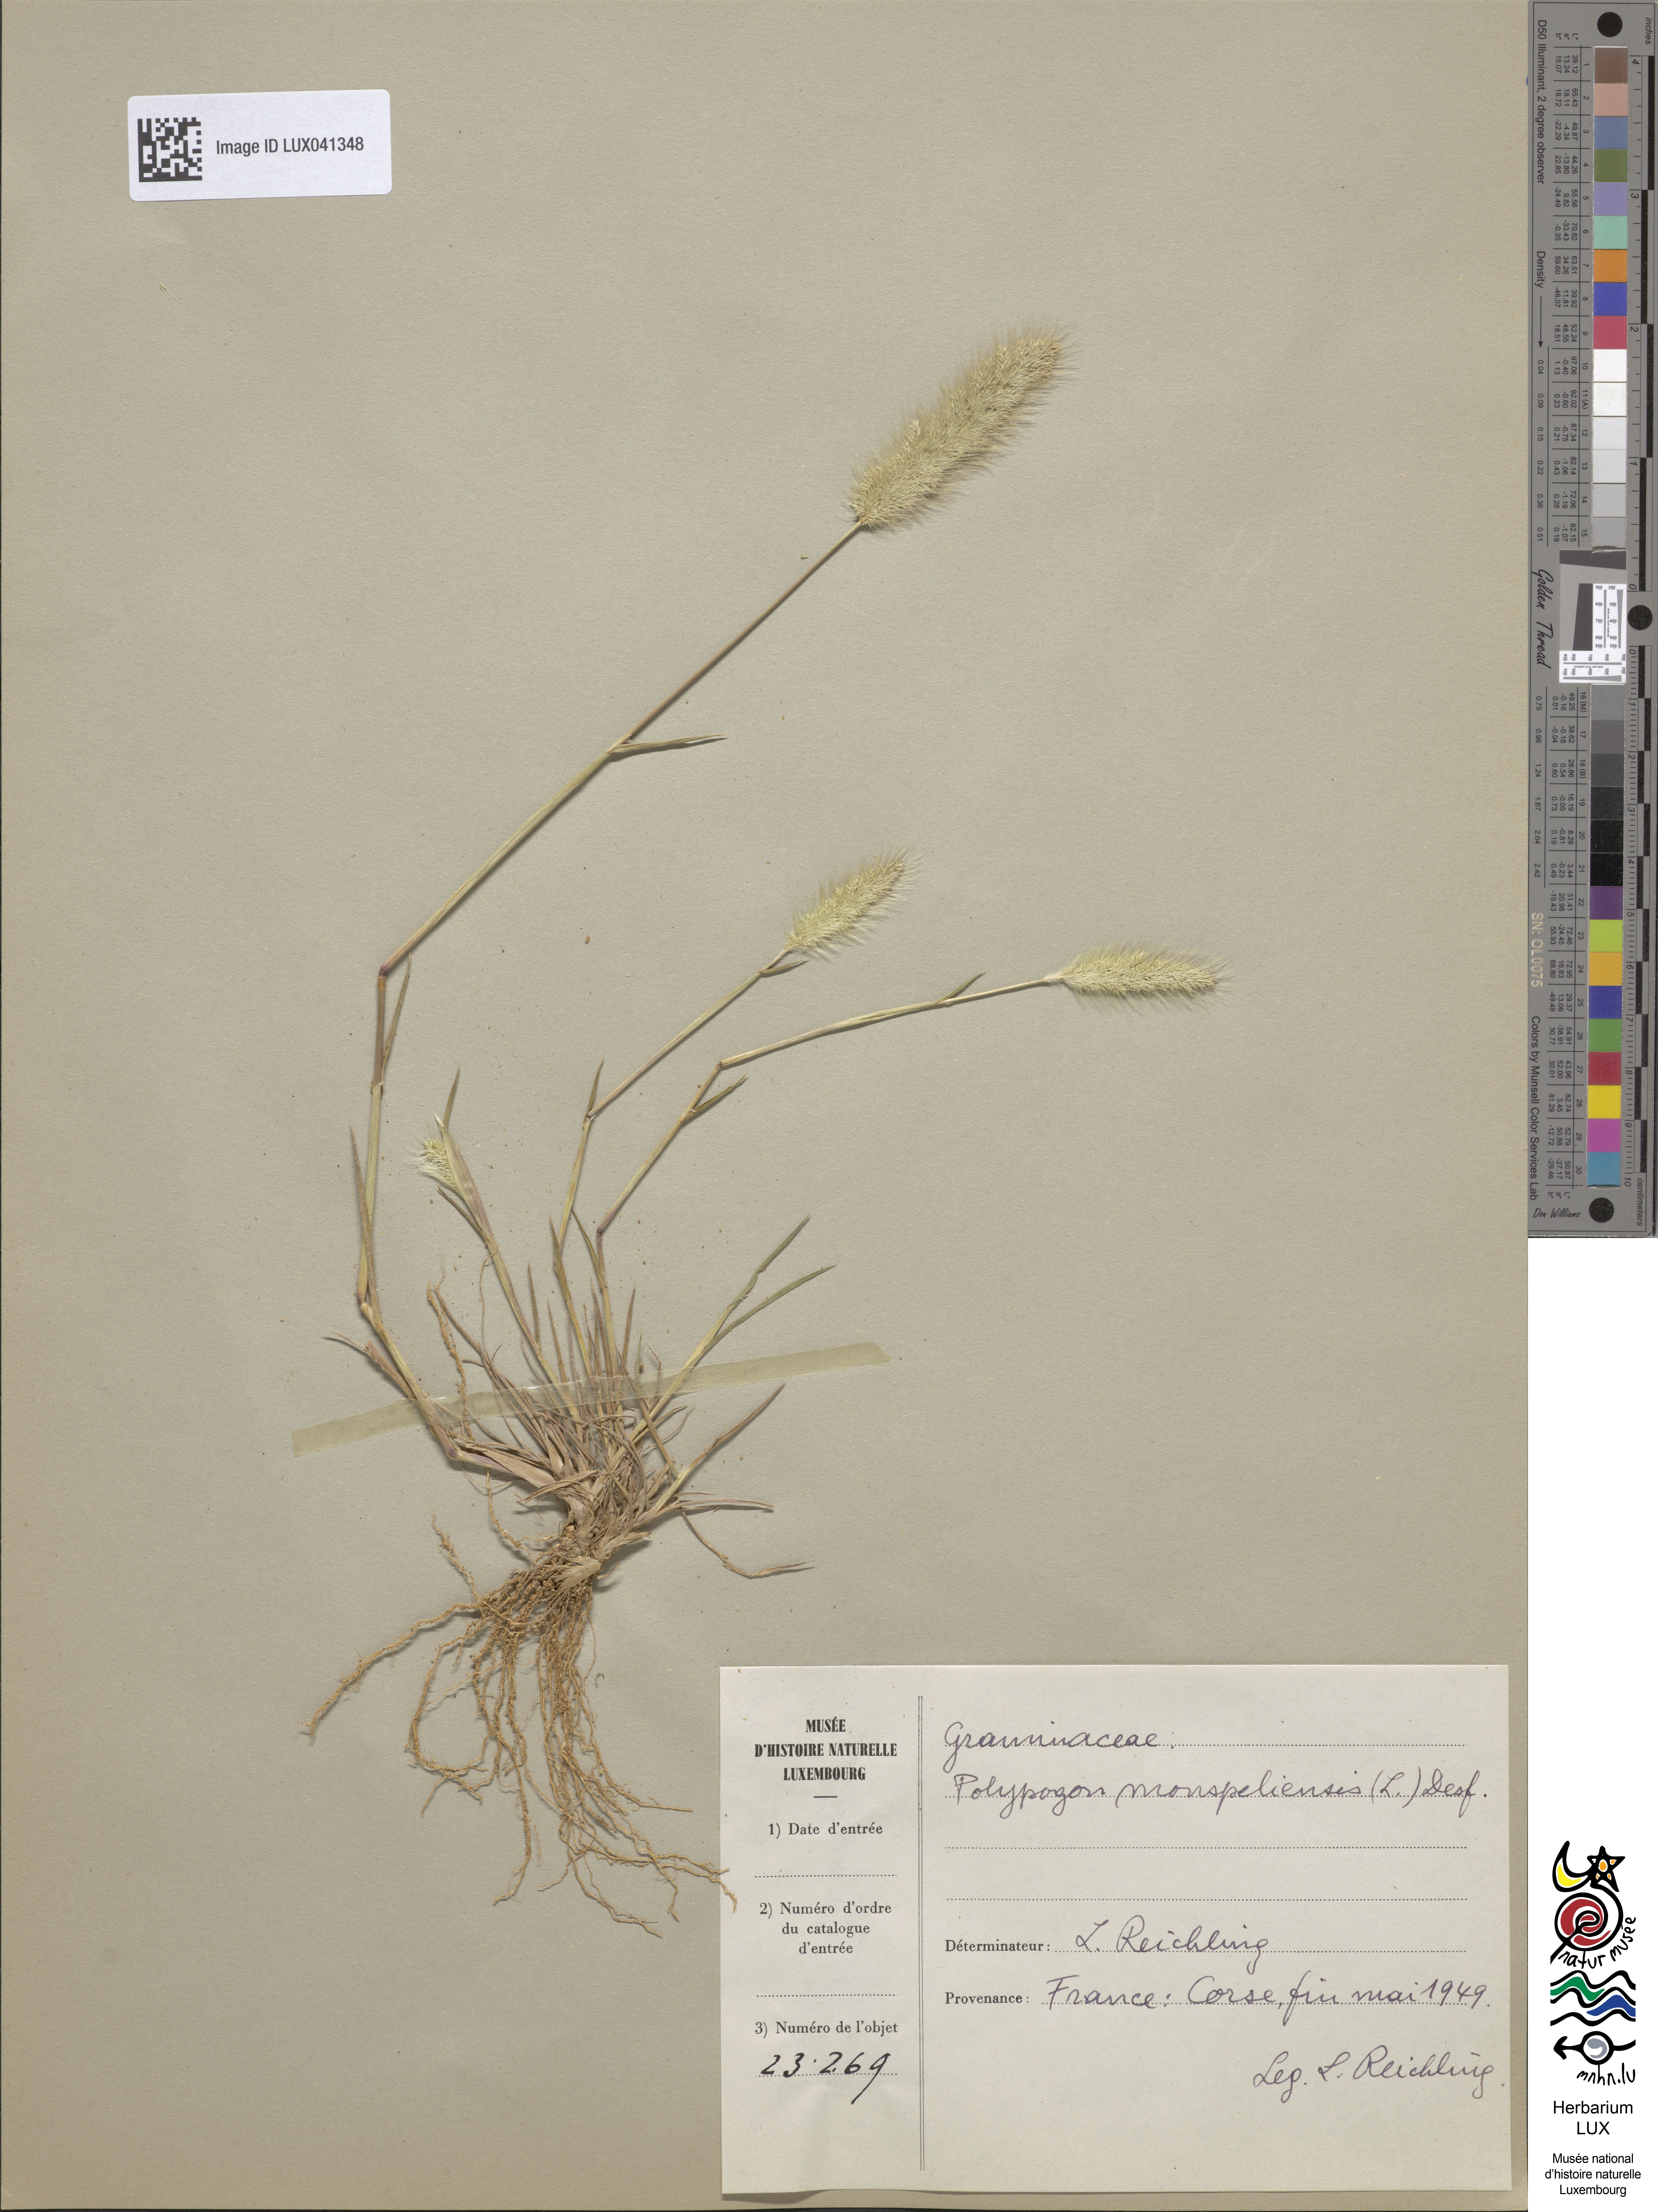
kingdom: Animalia
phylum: Arthropoda
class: Insecta
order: Lepidoptera
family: Erebidae
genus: Polypogon
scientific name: Polypogon
